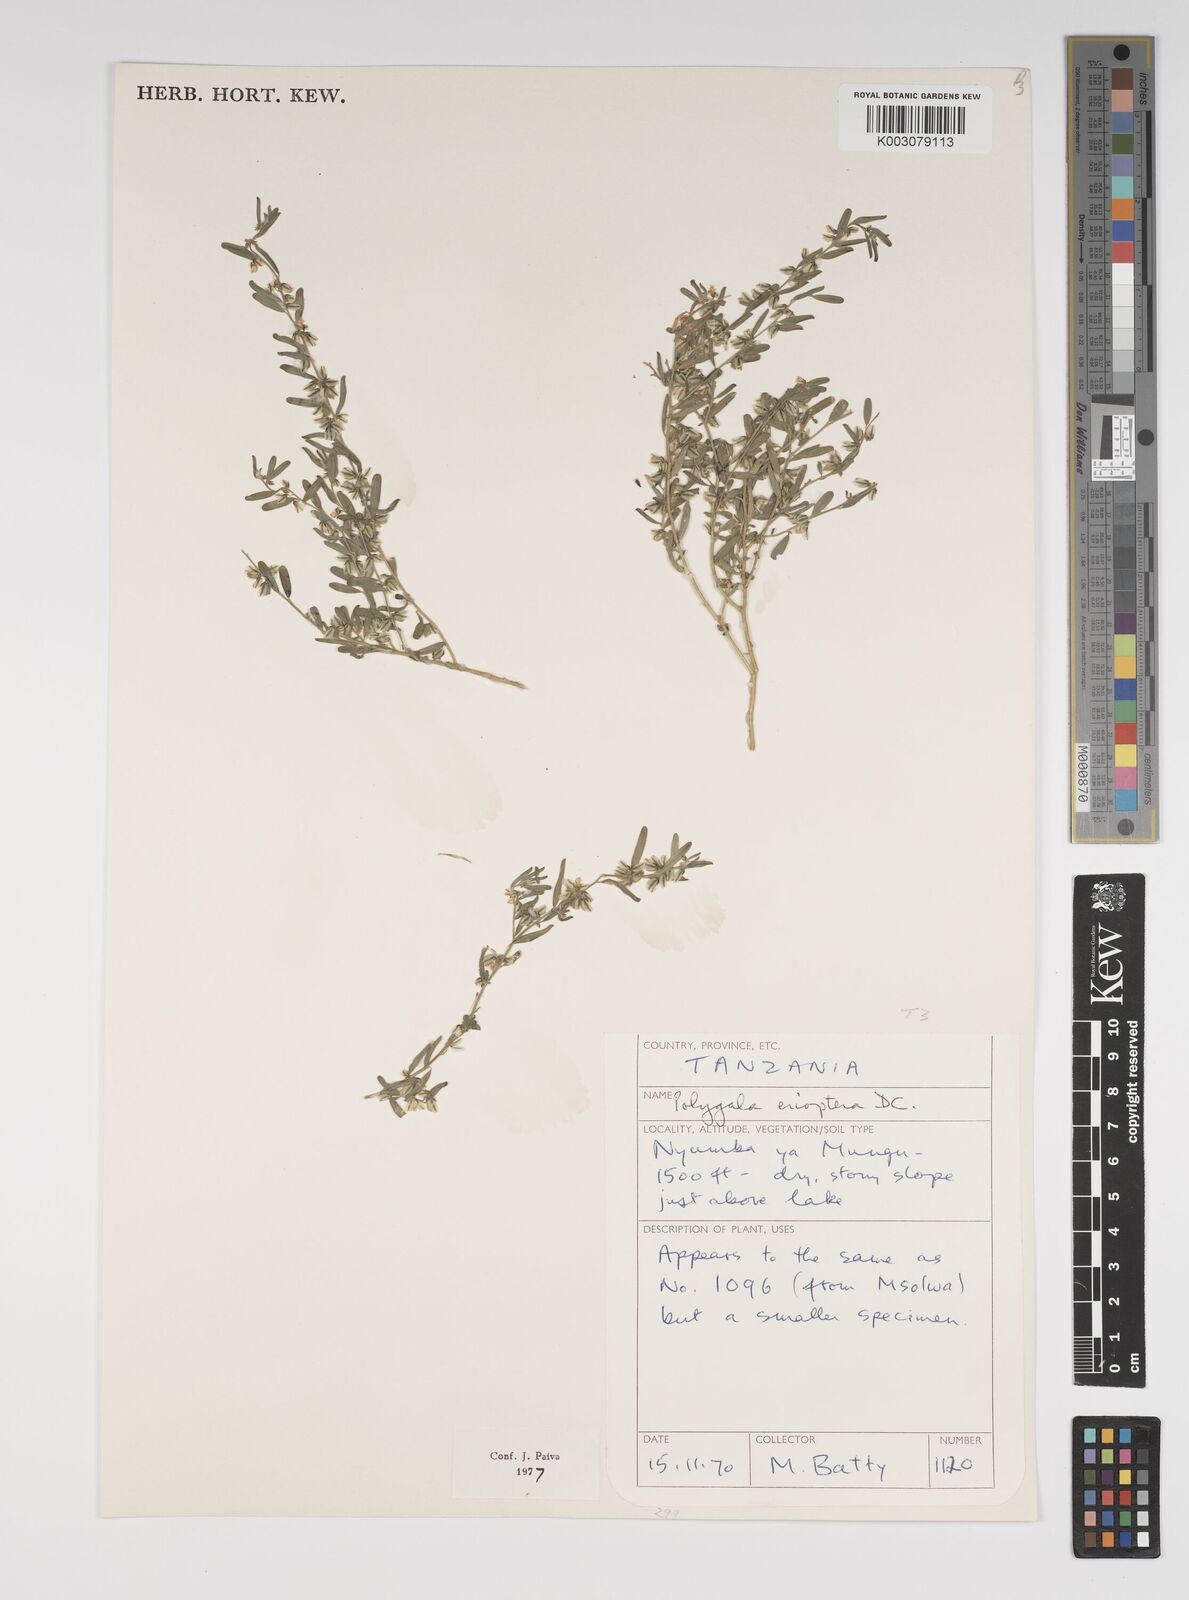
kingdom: Plantae
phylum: Tracheophyta
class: Magnoliopsida
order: Fabales
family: Polygalaceae
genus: Polygala
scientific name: Polygala erioptera
